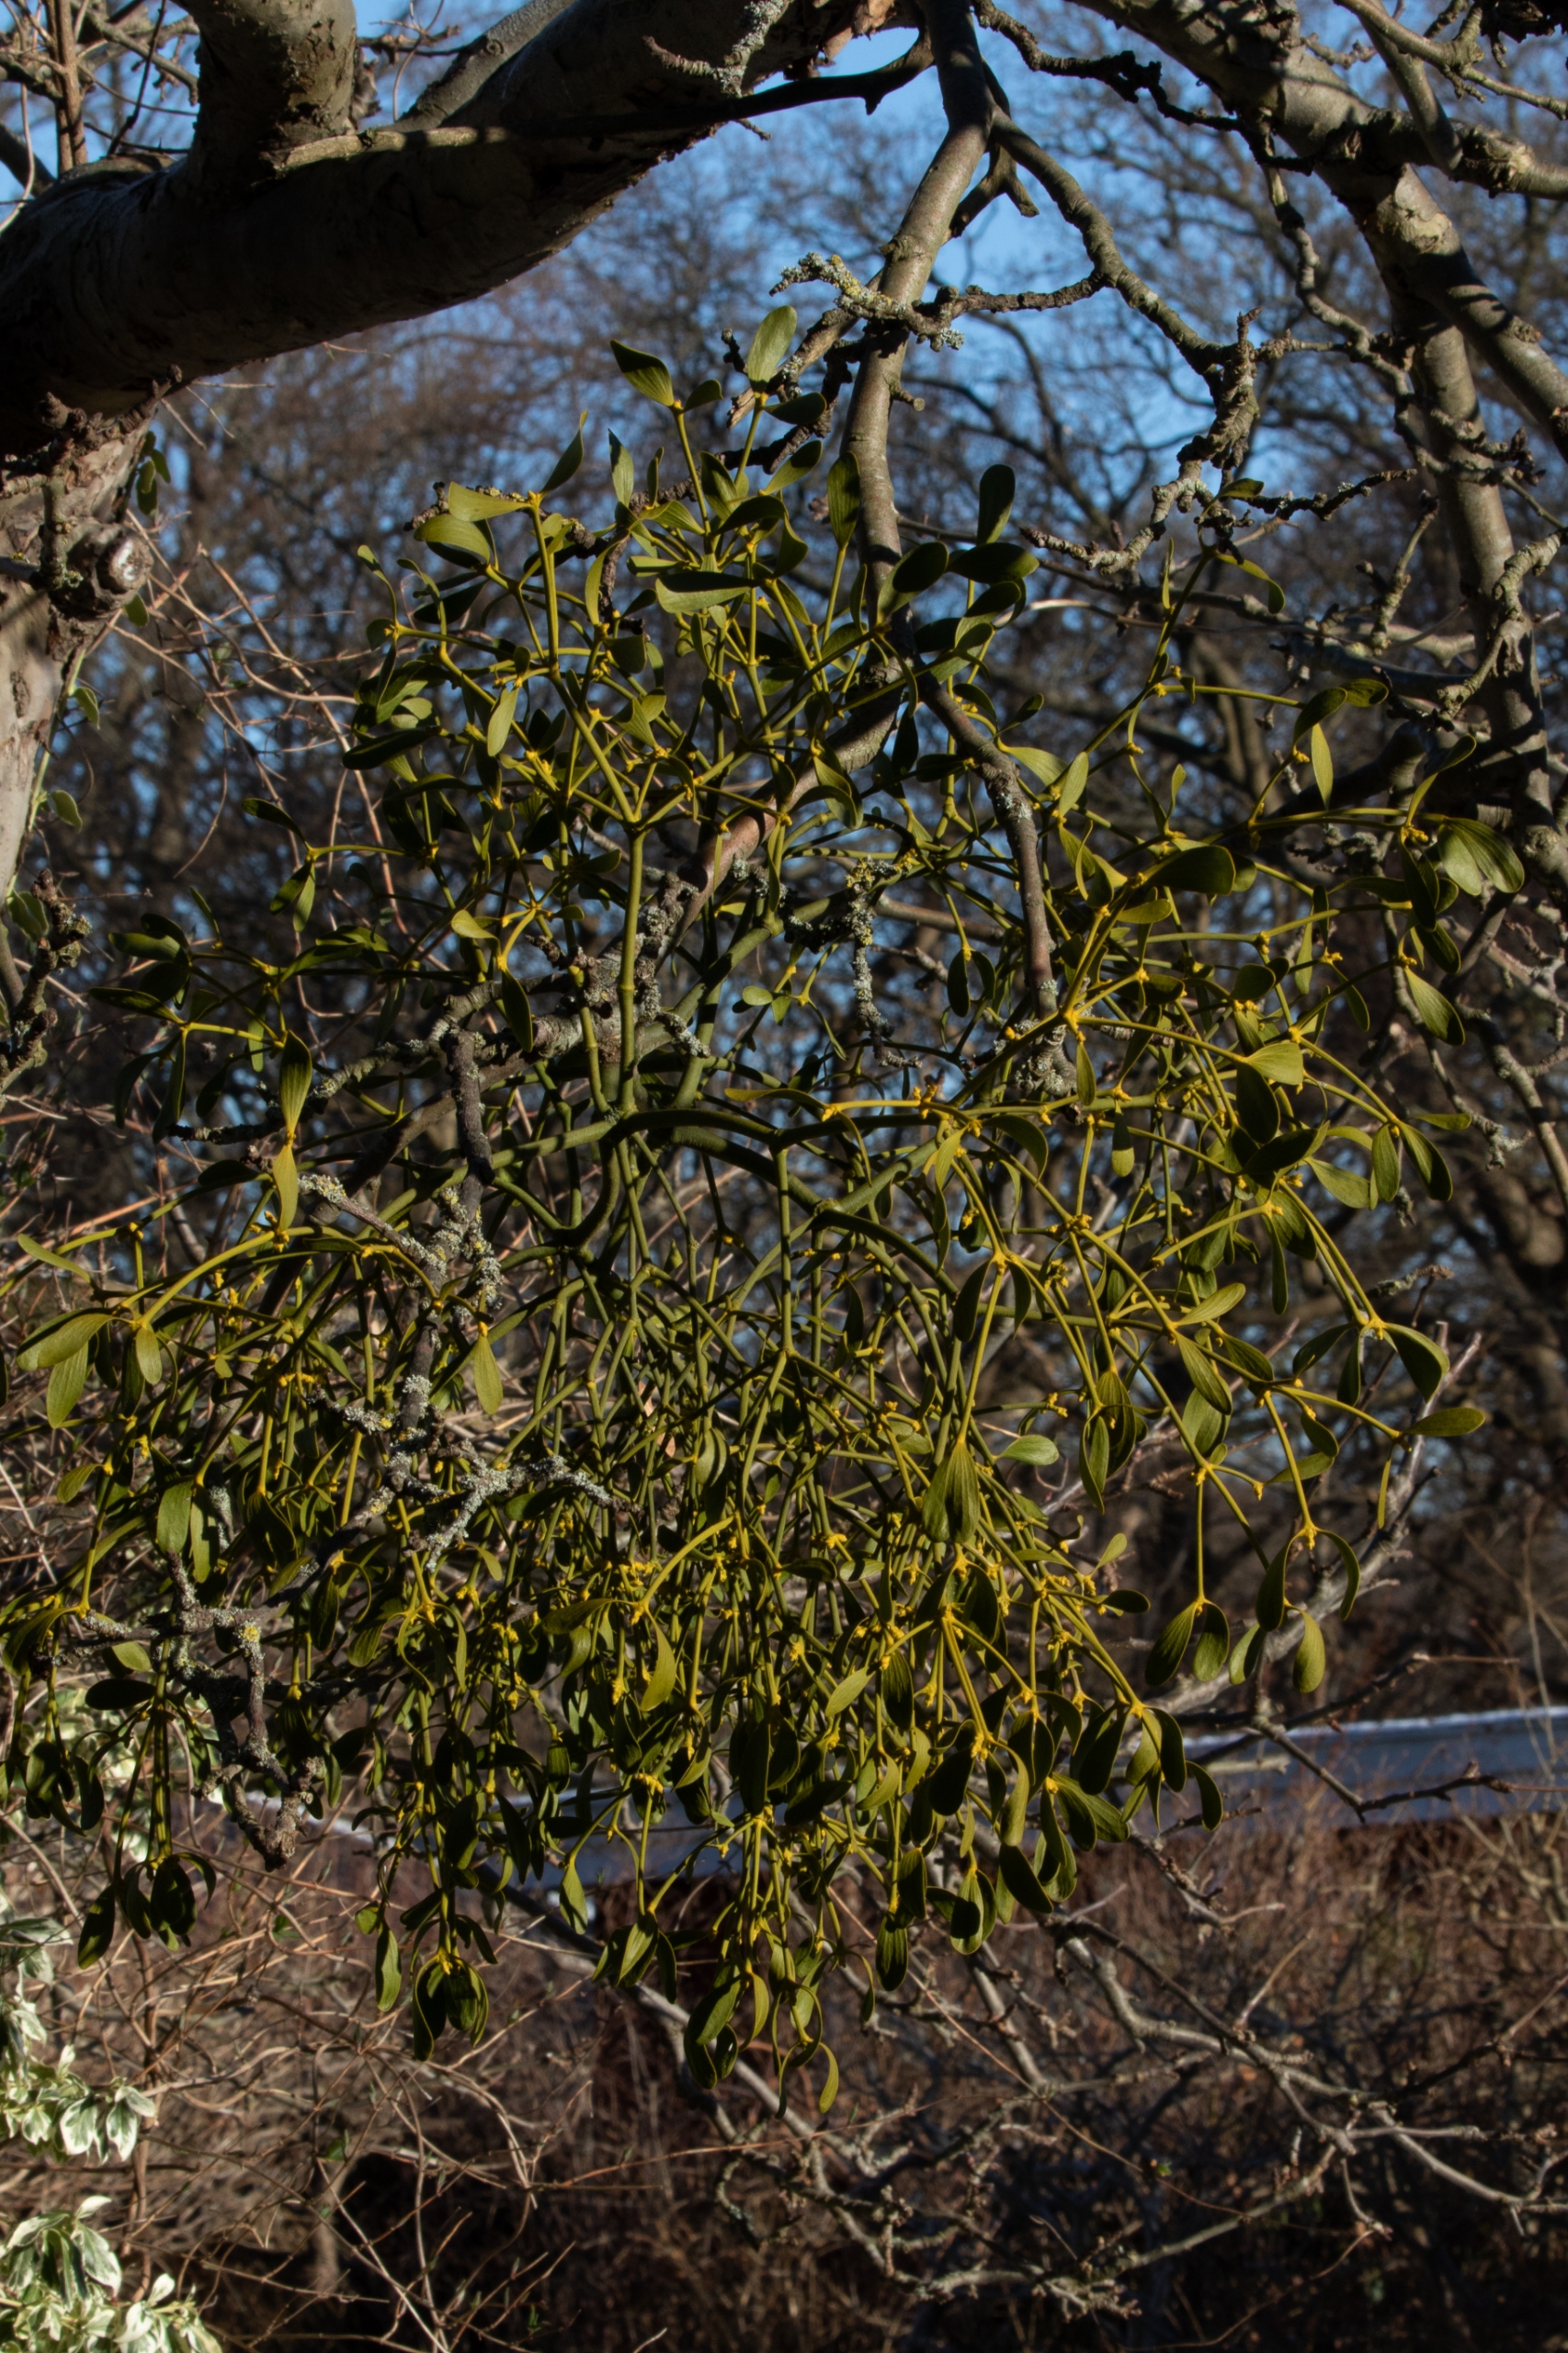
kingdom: Plantae
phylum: Tracheophyta
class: Magnoliopsida
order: Santalales
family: Viscaceae
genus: Viscum
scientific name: Viscum album
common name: Mistelten
